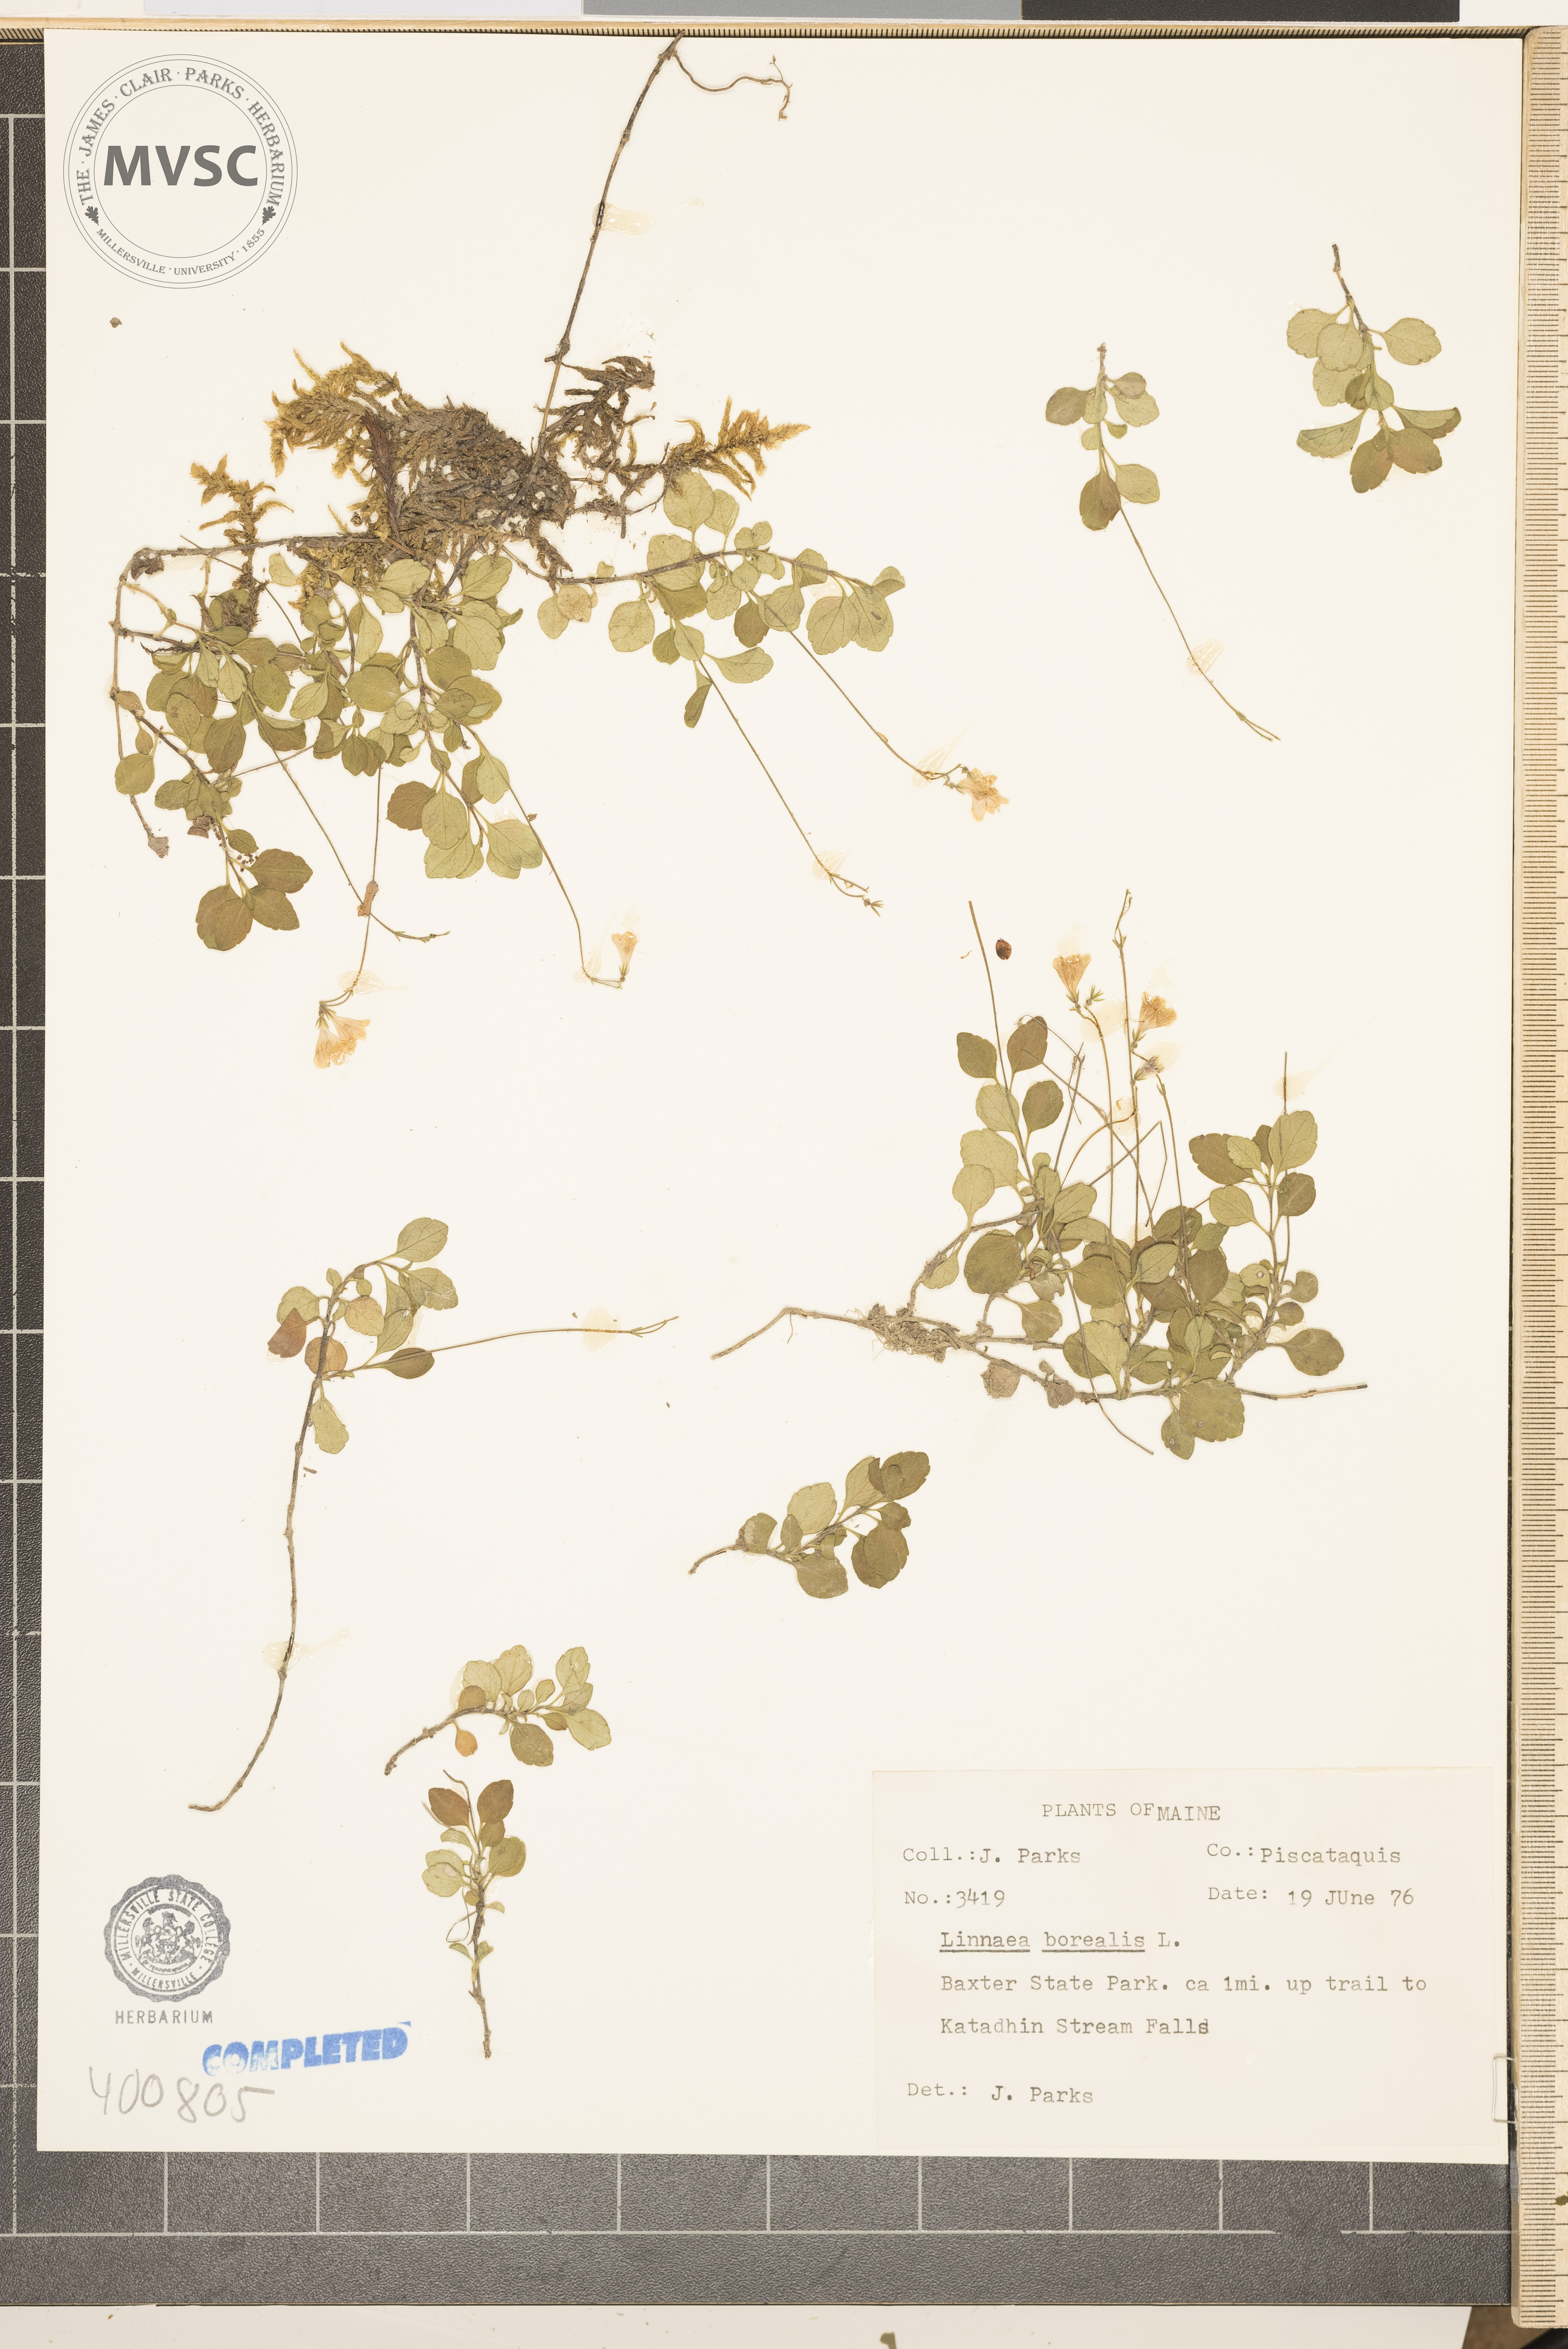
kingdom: Plantae
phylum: Tracheophyta
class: Magnoliopsida
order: Dipsacales
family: Caprifoliaceae
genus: Linnaea
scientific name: Linnaea borealis
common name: Twinflower
